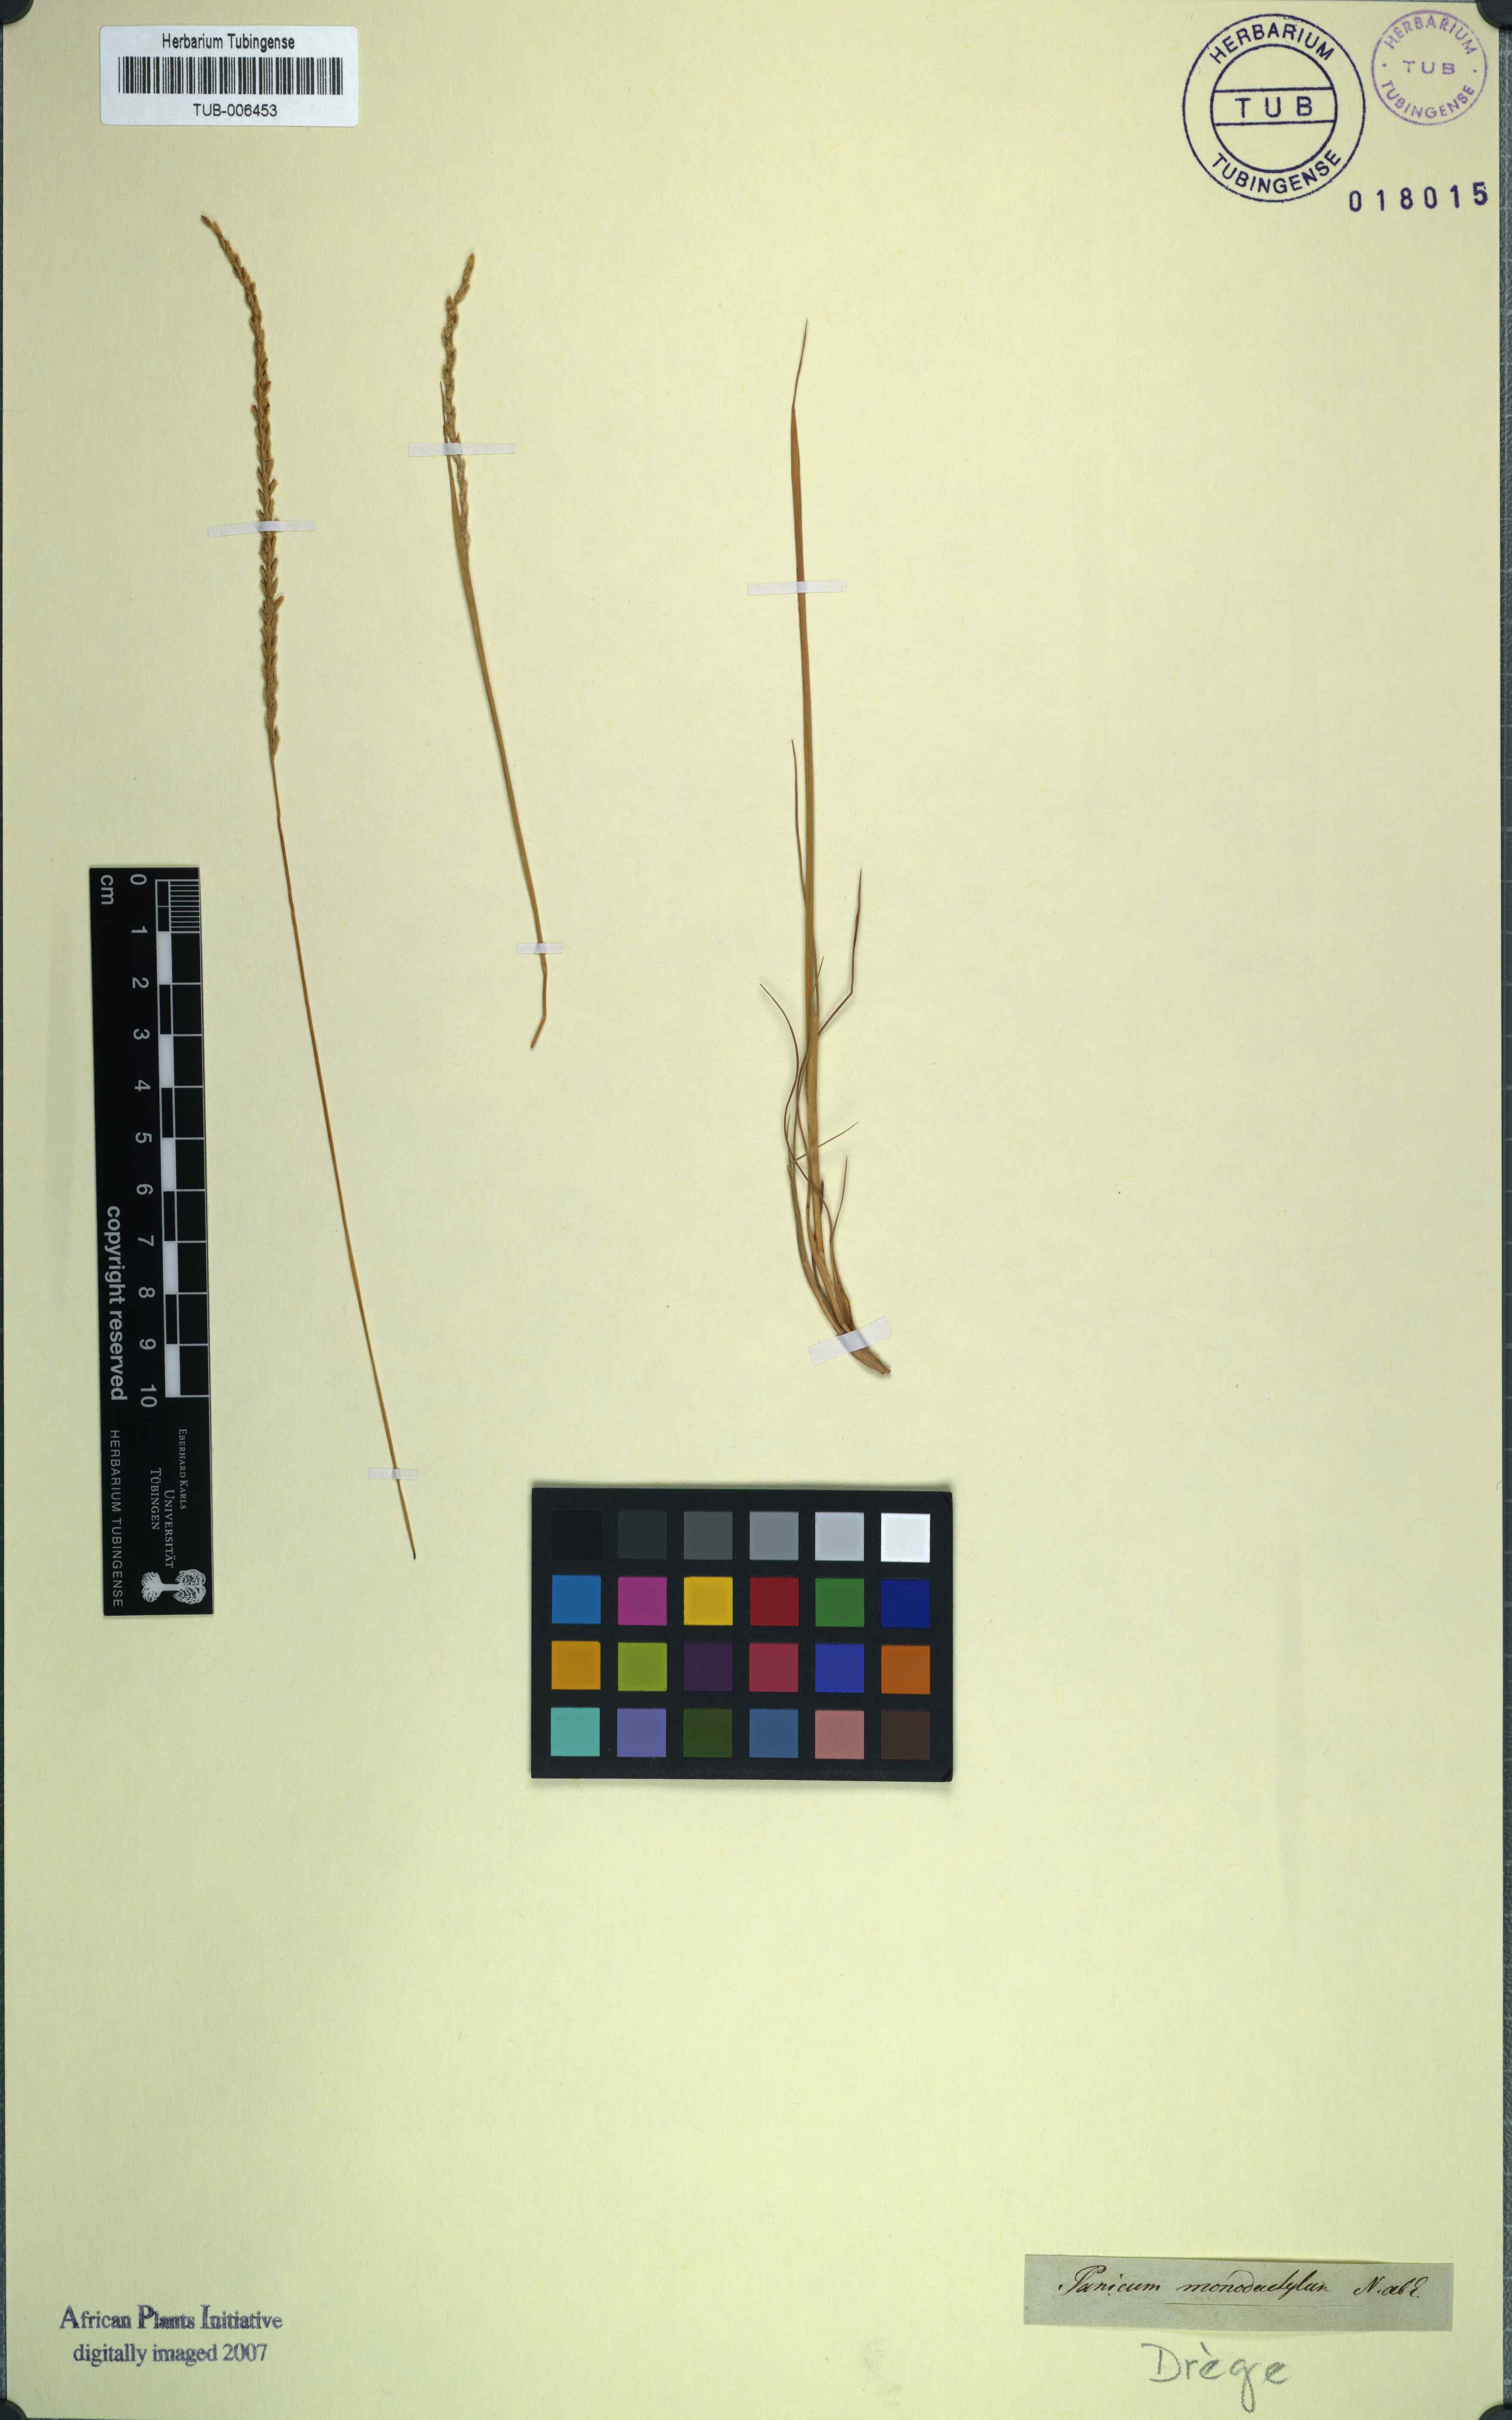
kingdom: Plantae
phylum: Tracheophyta
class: Liliopsida
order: Poales
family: Poaceae
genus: Digitaria
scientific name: Digitaria monodactyla
